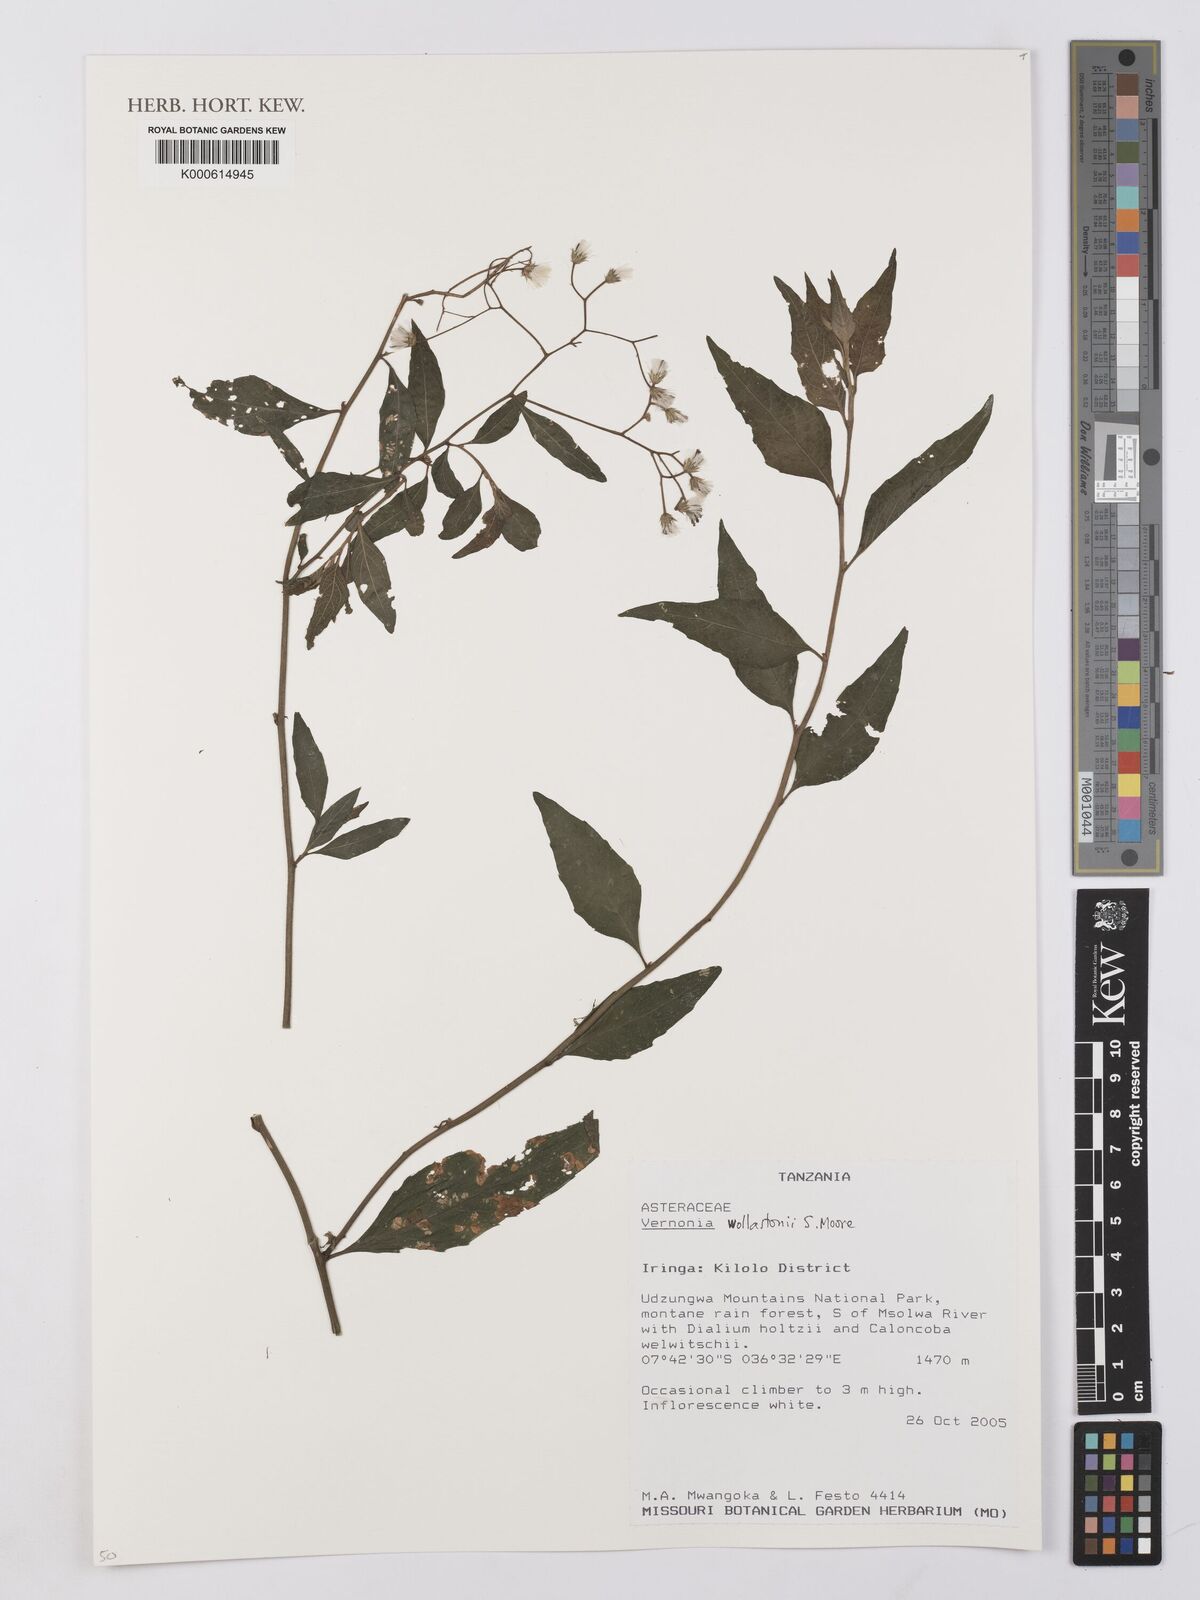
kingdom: Plantae
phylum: Tracheophyta
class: Magnoliopsida
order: Asterales
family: Asteraceae
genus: Cyanthillium
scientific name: Cyanthillium wollastonii
